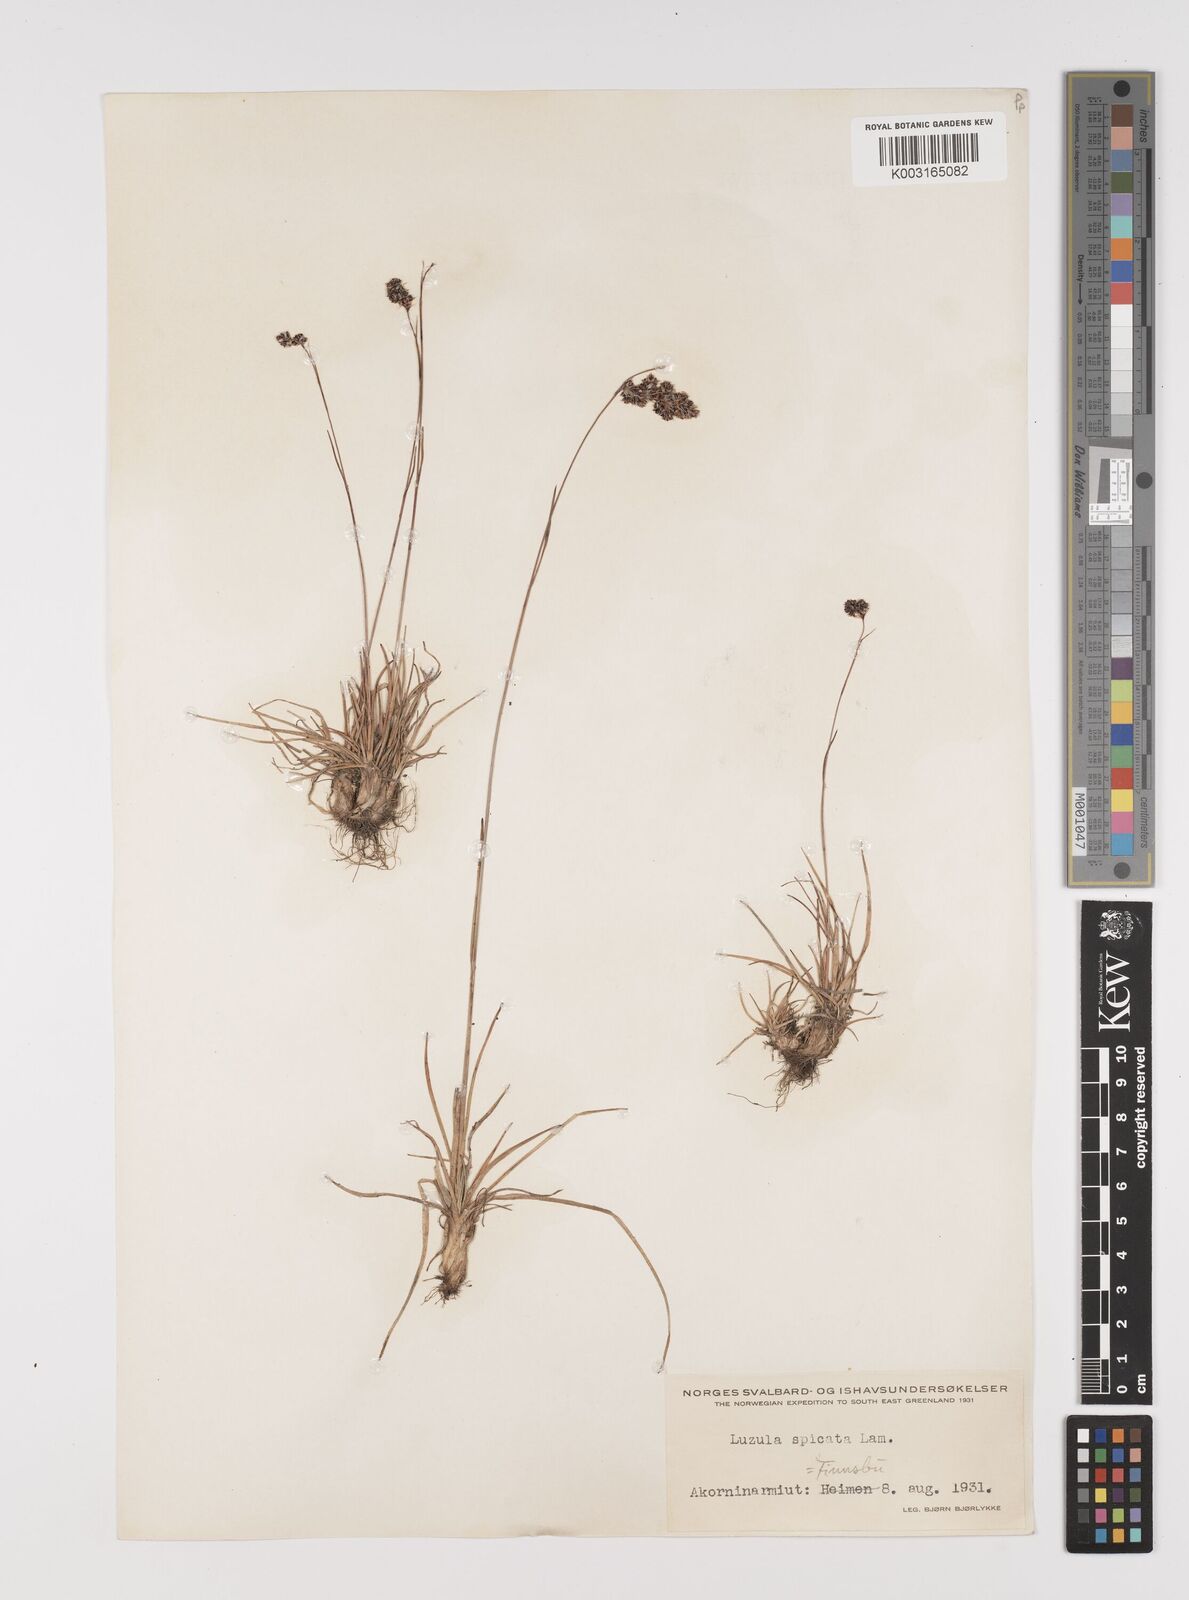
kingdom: Plantae
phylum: Tracheophyta
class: Liliopsida
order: Poales
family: Juncaceae
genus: Luzula
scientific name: Luzula spicata
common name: Spiked wood-rush
